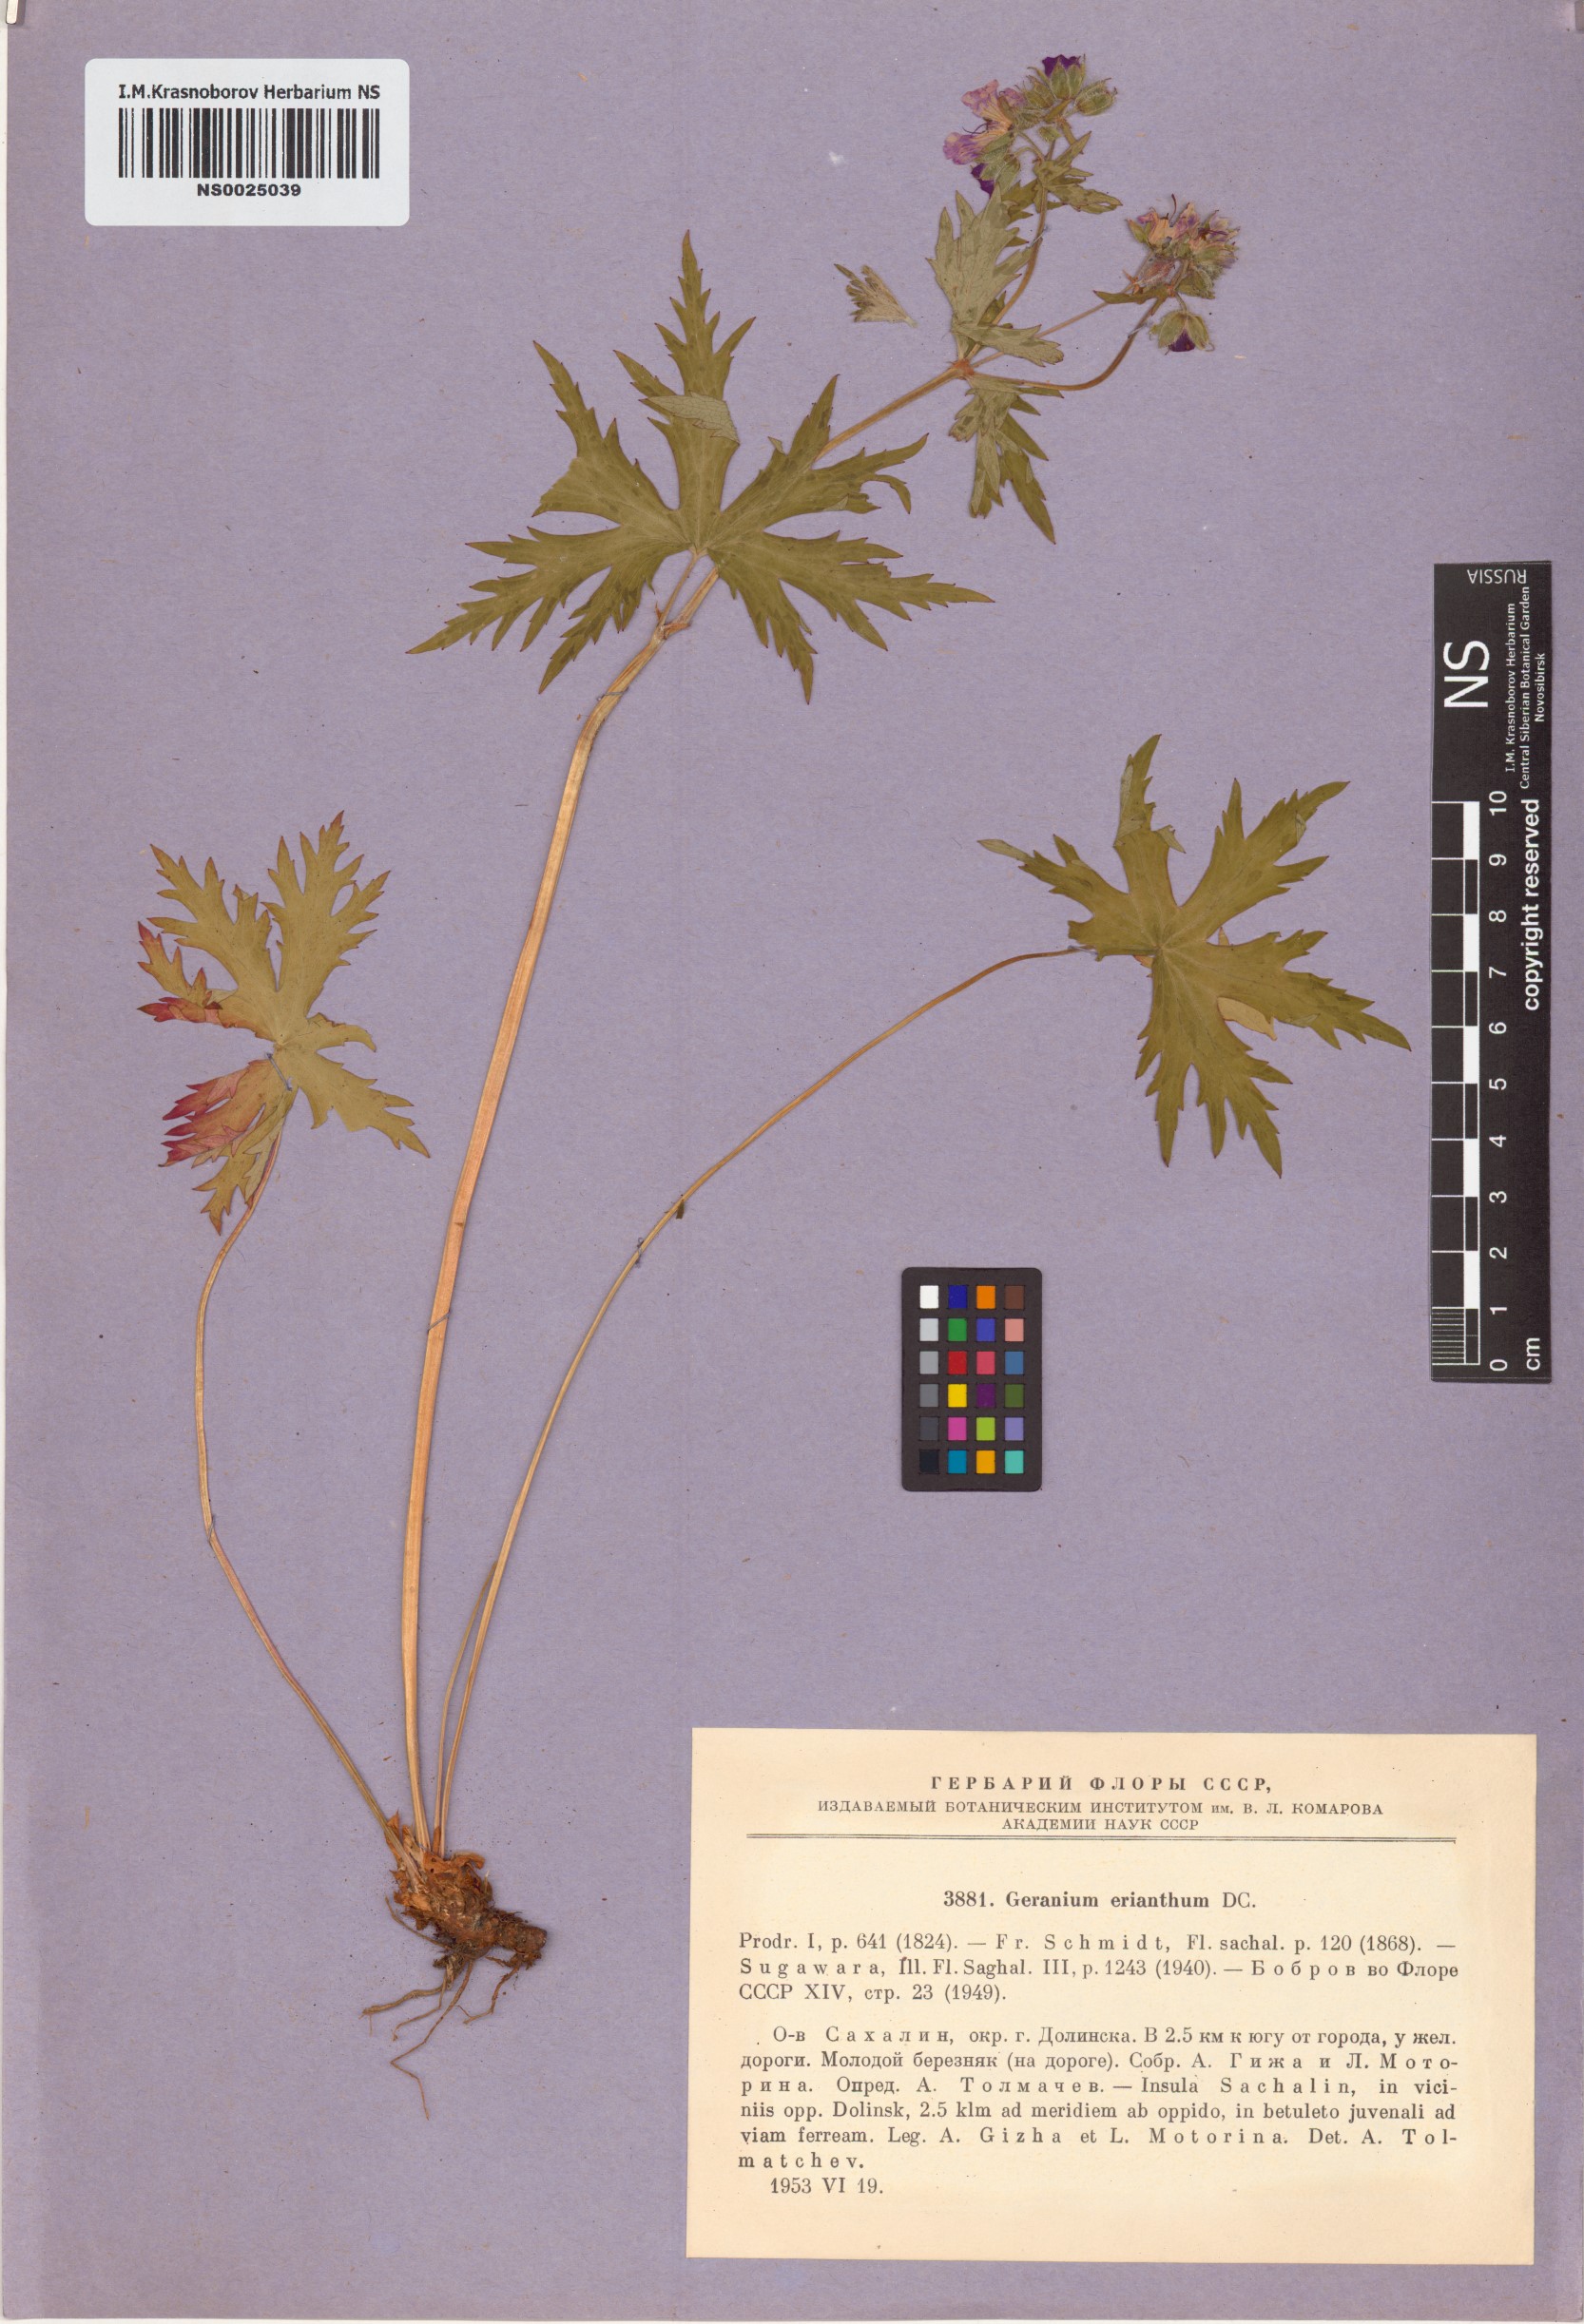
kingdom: Plantae
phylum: Tracheophyta
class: Magnoliopsida
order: Geraniales
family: Geraniaceae
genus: Geranium
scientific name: Geranium erianthum
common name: Northern crane's-bill
